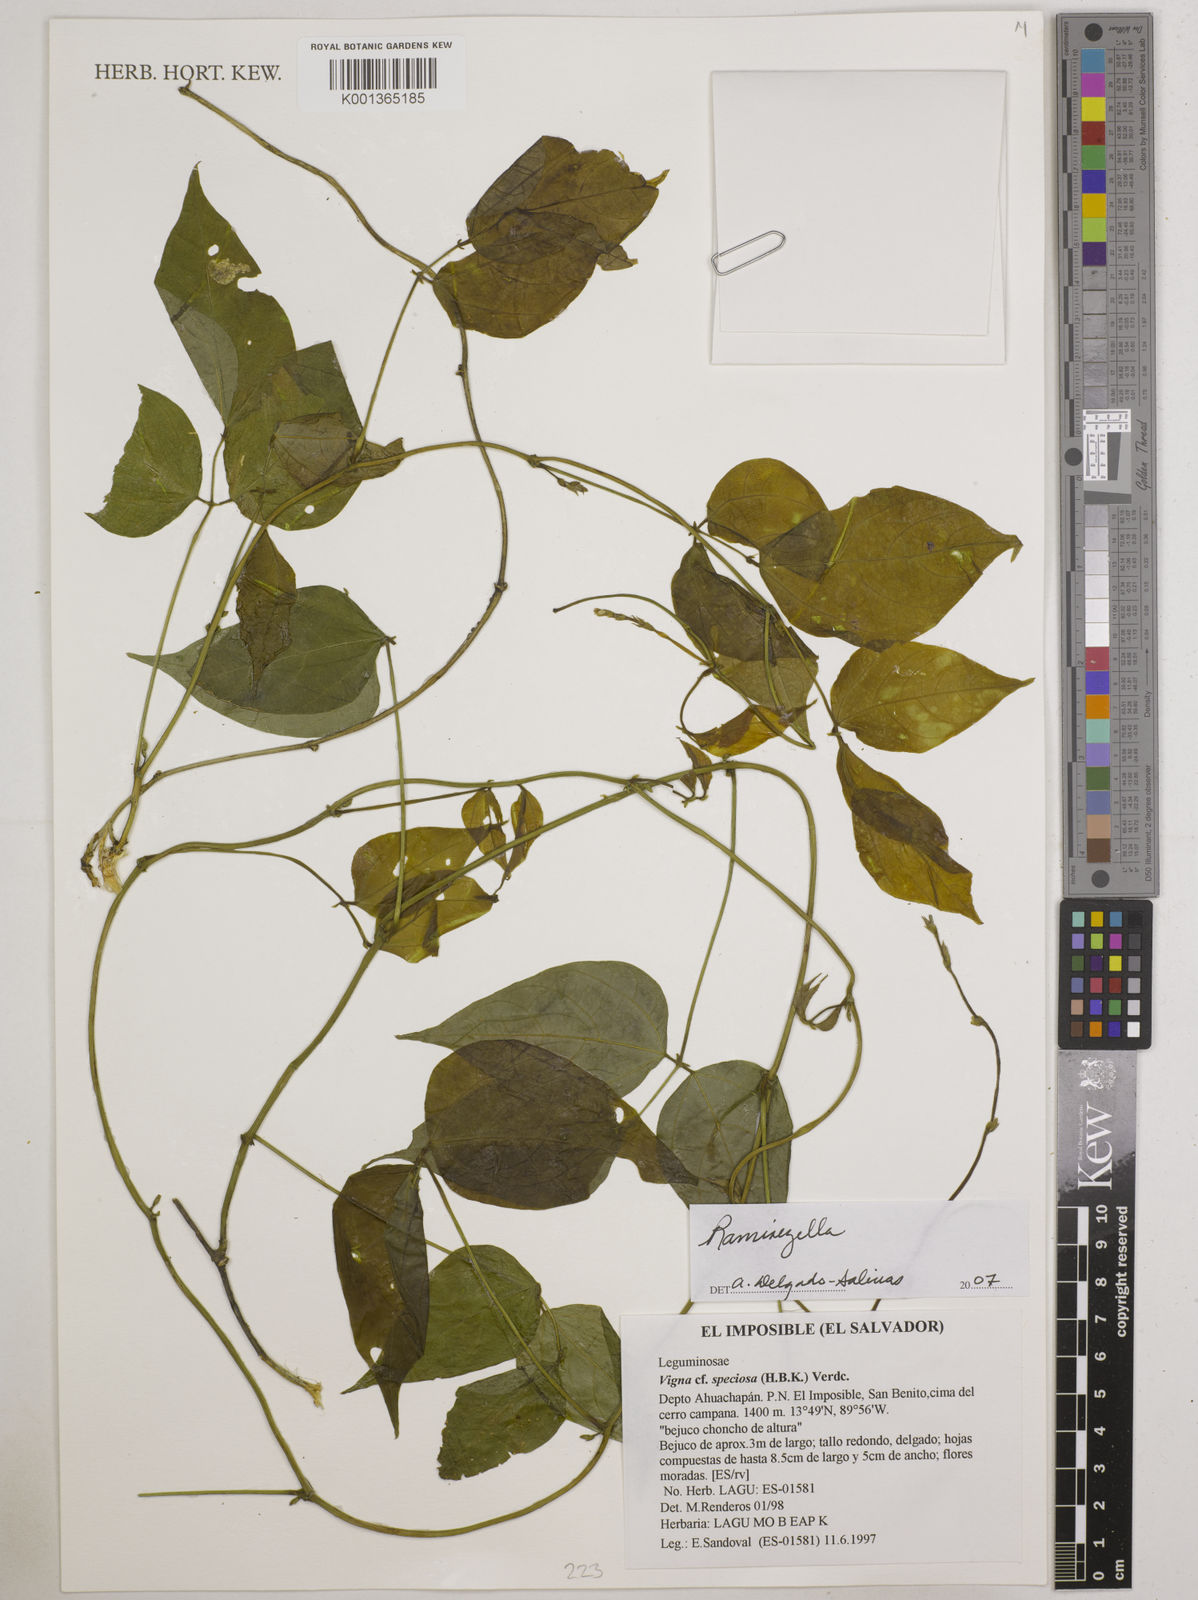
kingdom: Plantae
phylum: Tracheophyta
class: Magnoliopsida
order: Fabales
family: Fabaceae
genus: Ramirezella
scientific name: Ramirezella
